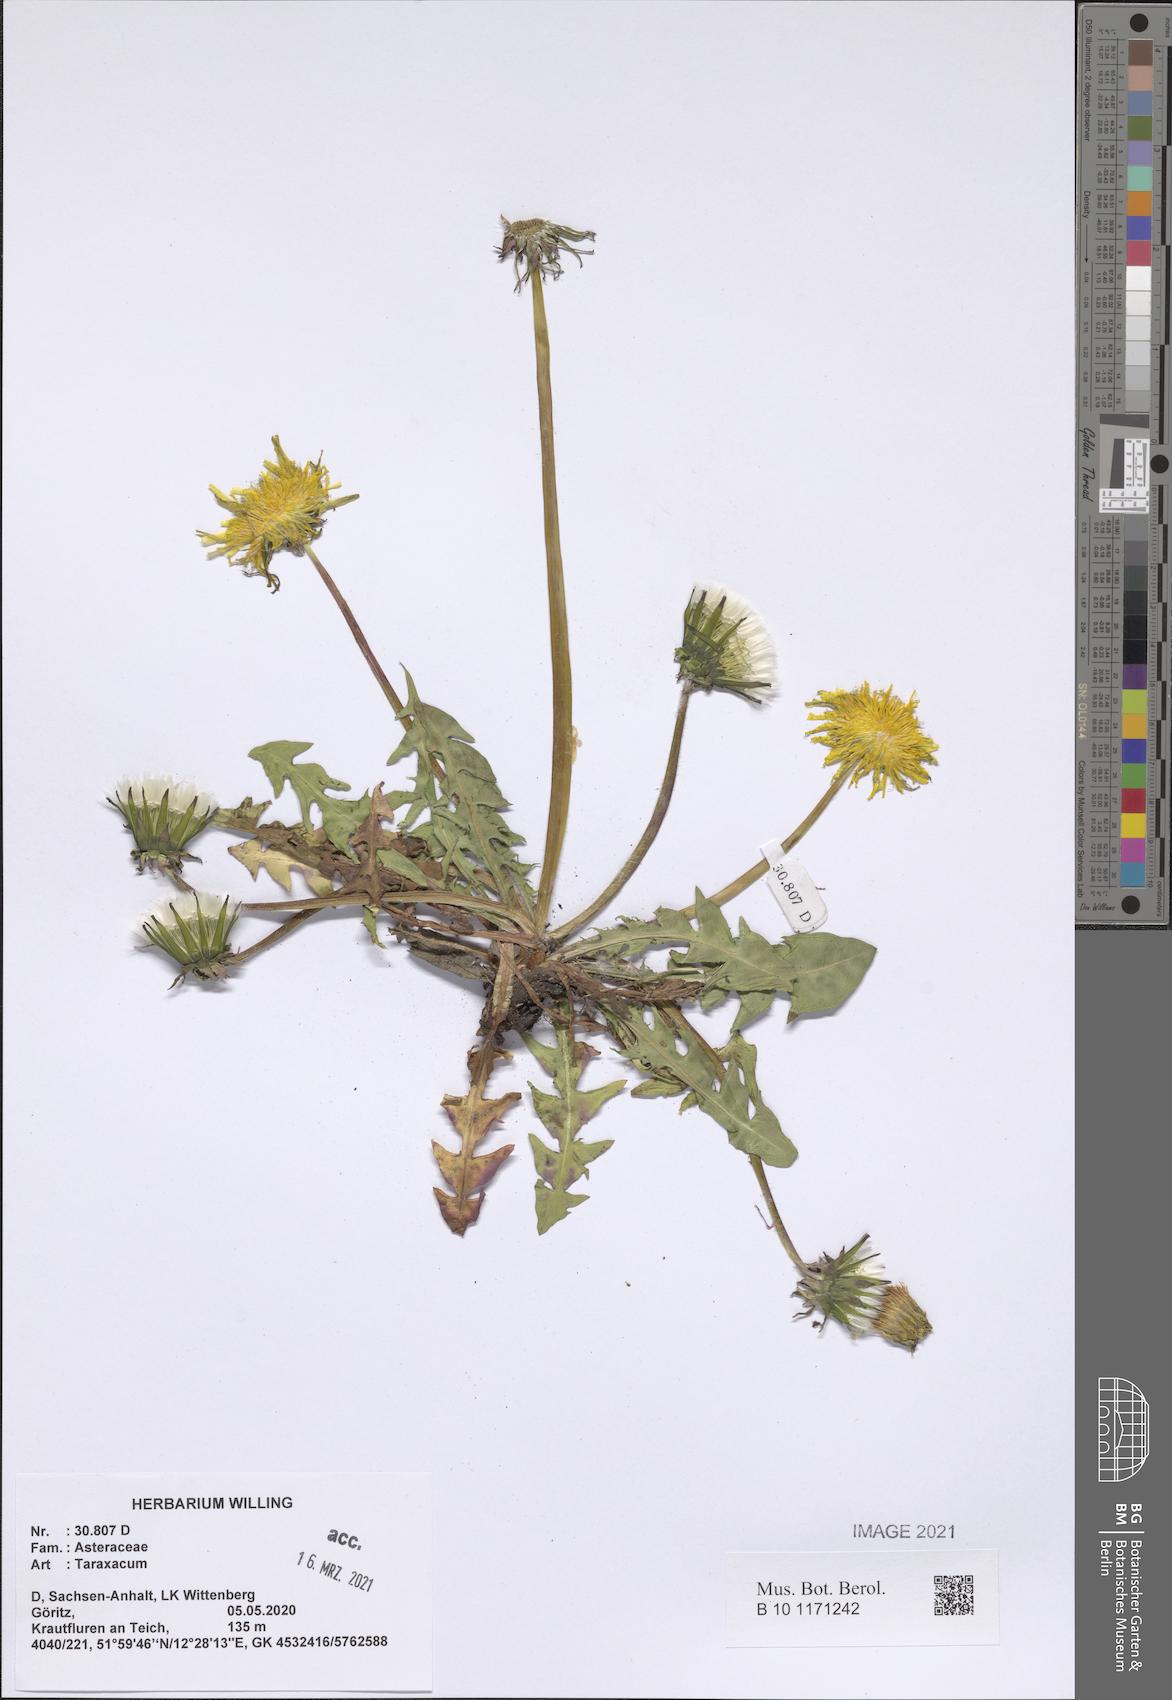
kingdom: Plantae
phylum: Tracheophyta
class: Magnoliopsida
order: Asterales
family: Asteraceae
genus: Taraxacum
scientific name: Taraxacum
